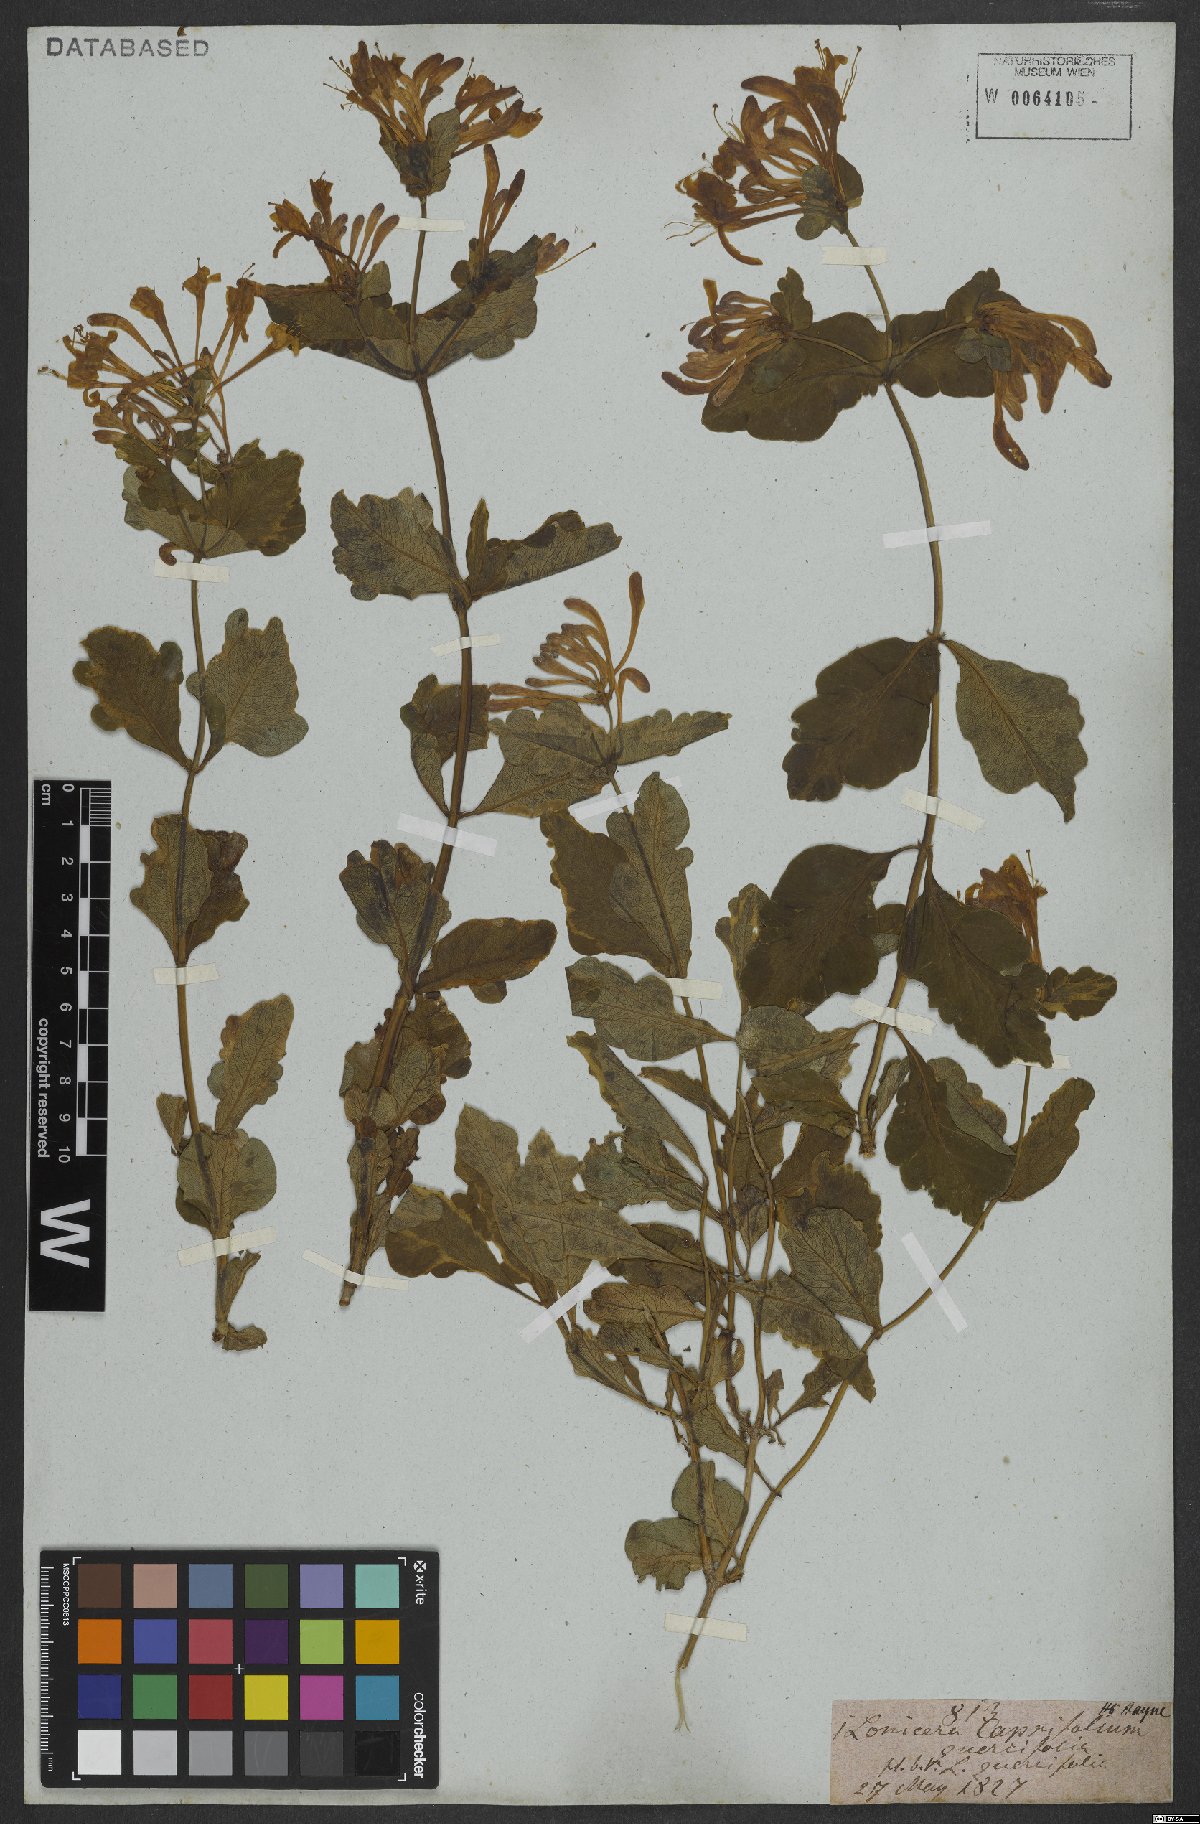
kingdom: Plantae
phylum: Tracheophyta
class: Magnoliopsida
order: Dipsacales
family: Caprifoliaceae
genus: Lonicera
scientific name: Lonicera caprifolium
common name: Perfoliate honeysuckle
